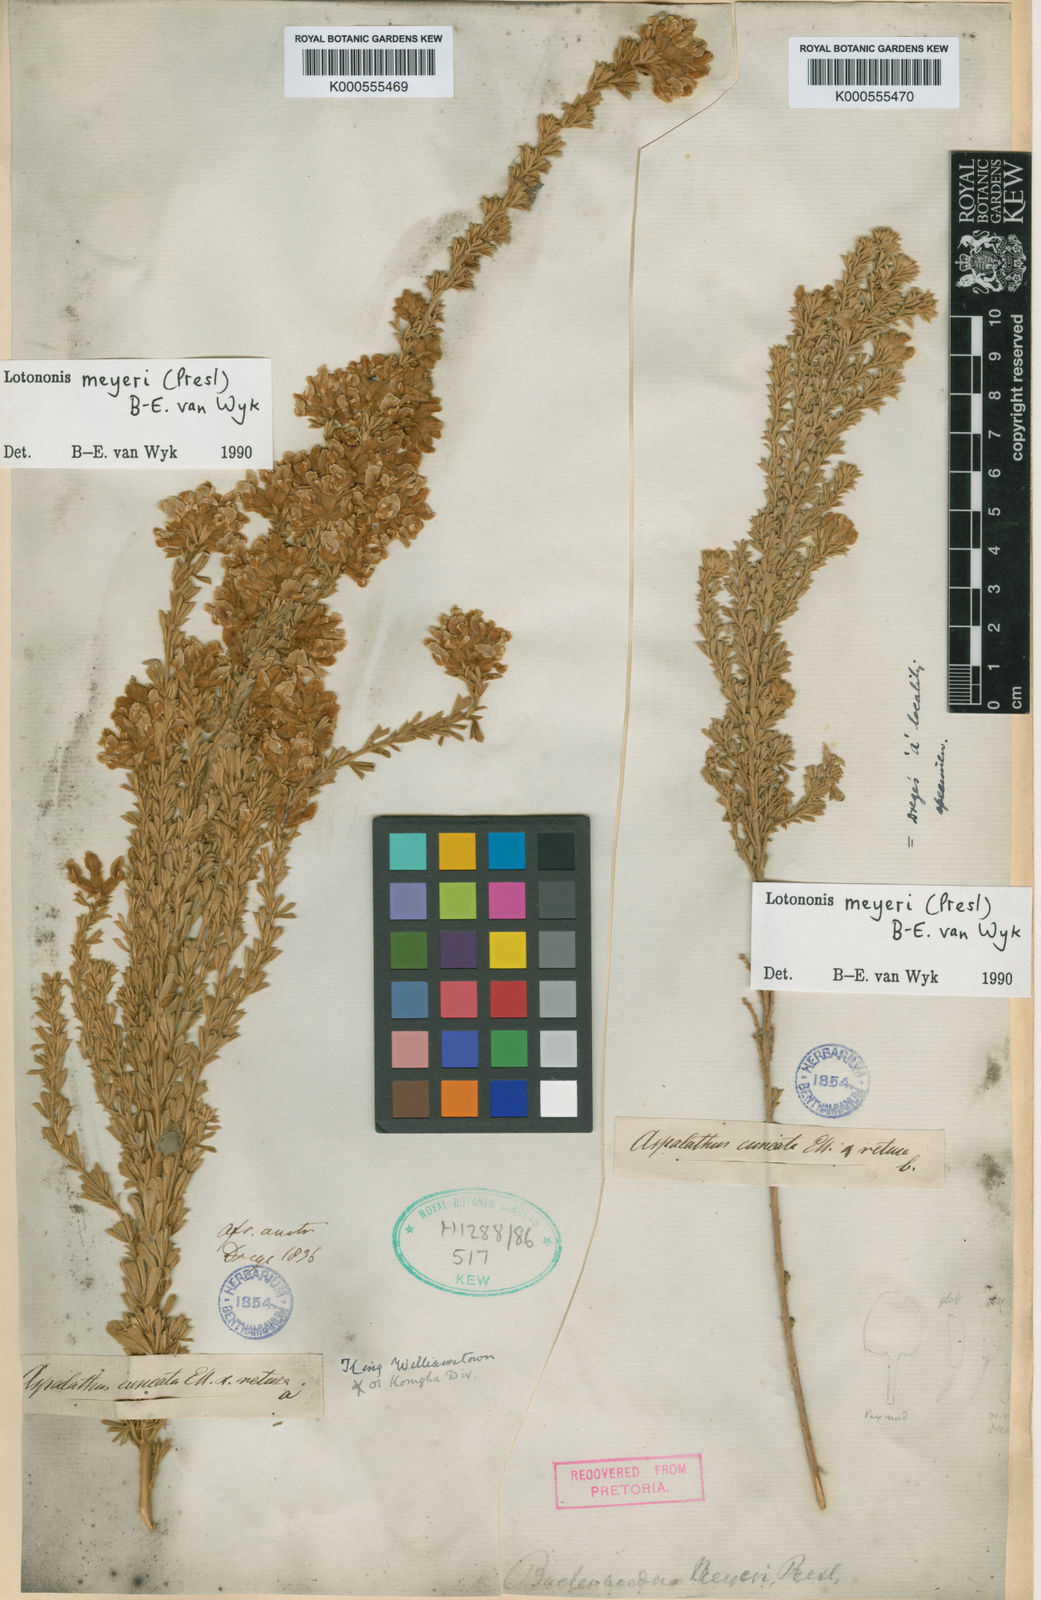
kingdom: Plantae
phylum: Tracheophyta
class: Magnoliopsida
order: Fabales
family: Fabaceae
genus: Lotononis
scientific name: Lotononis meyeri
